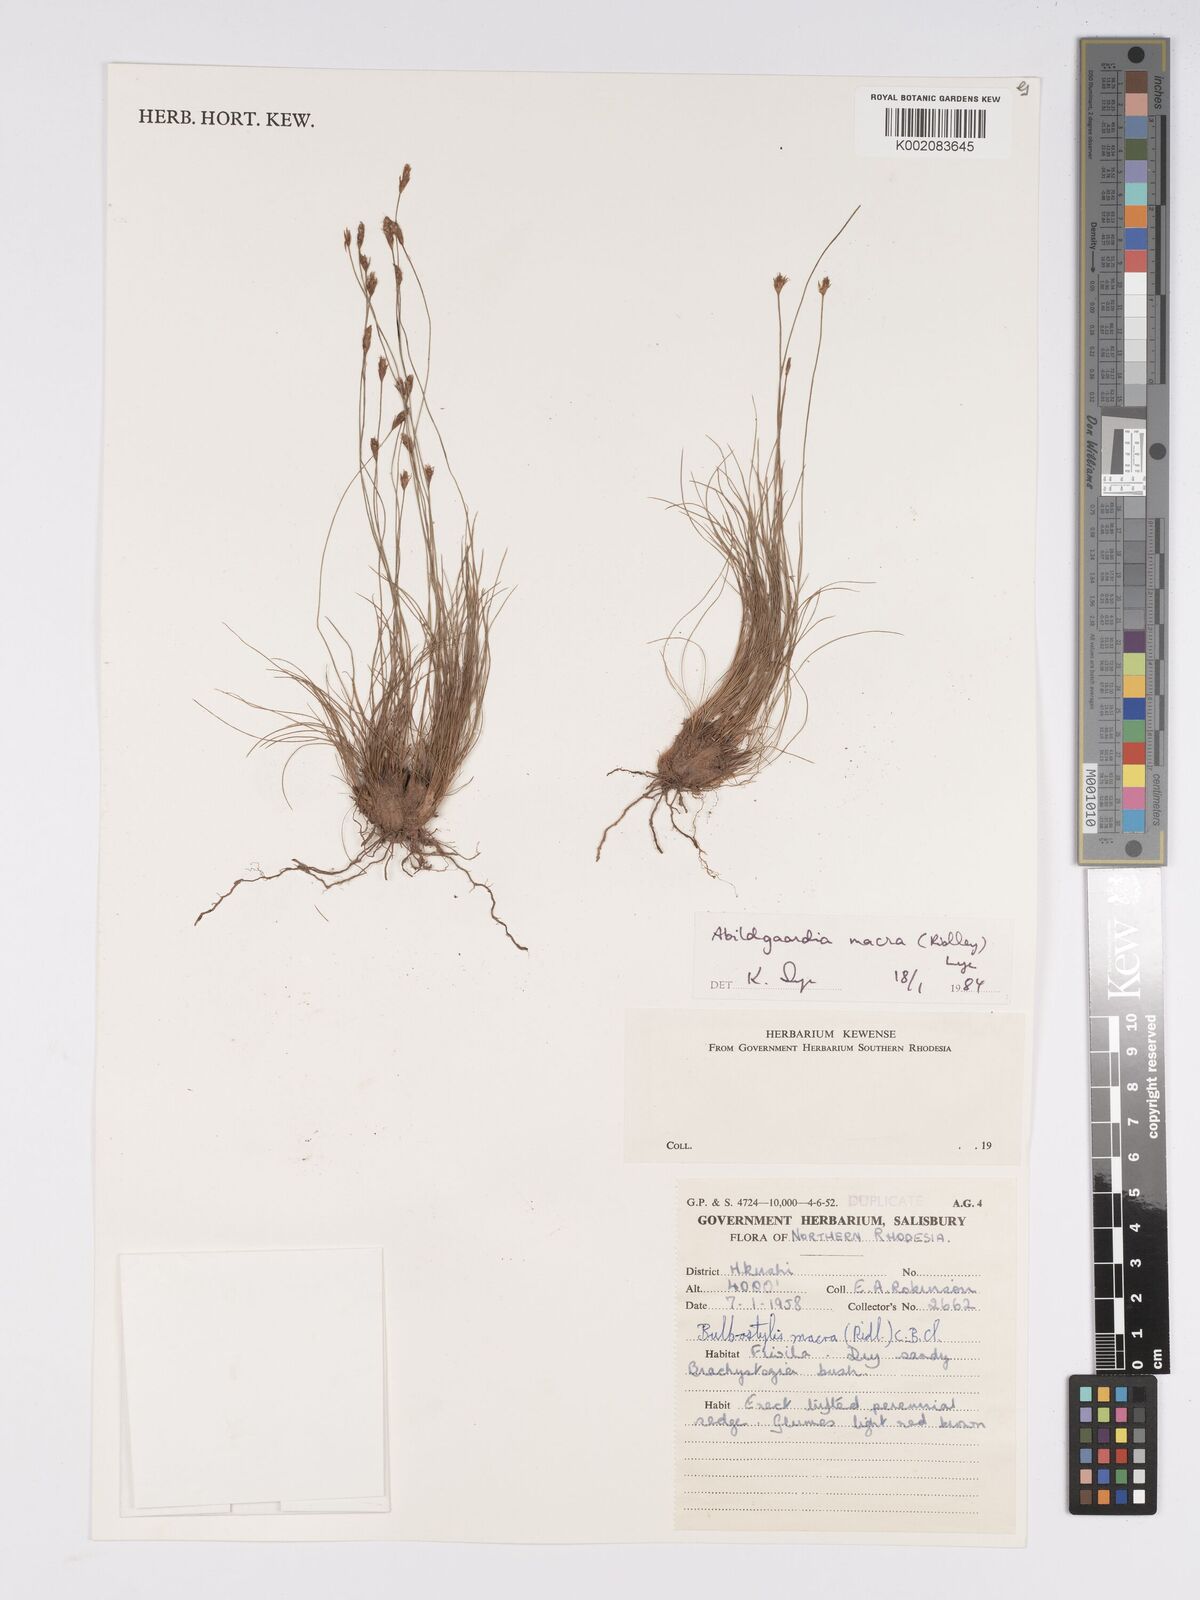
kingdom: Plantae
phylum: Tracheophyta
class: Liliopsida
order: Poales
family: Cyperaceae
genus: Bulbostylis
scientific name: Bulbostylis macra
